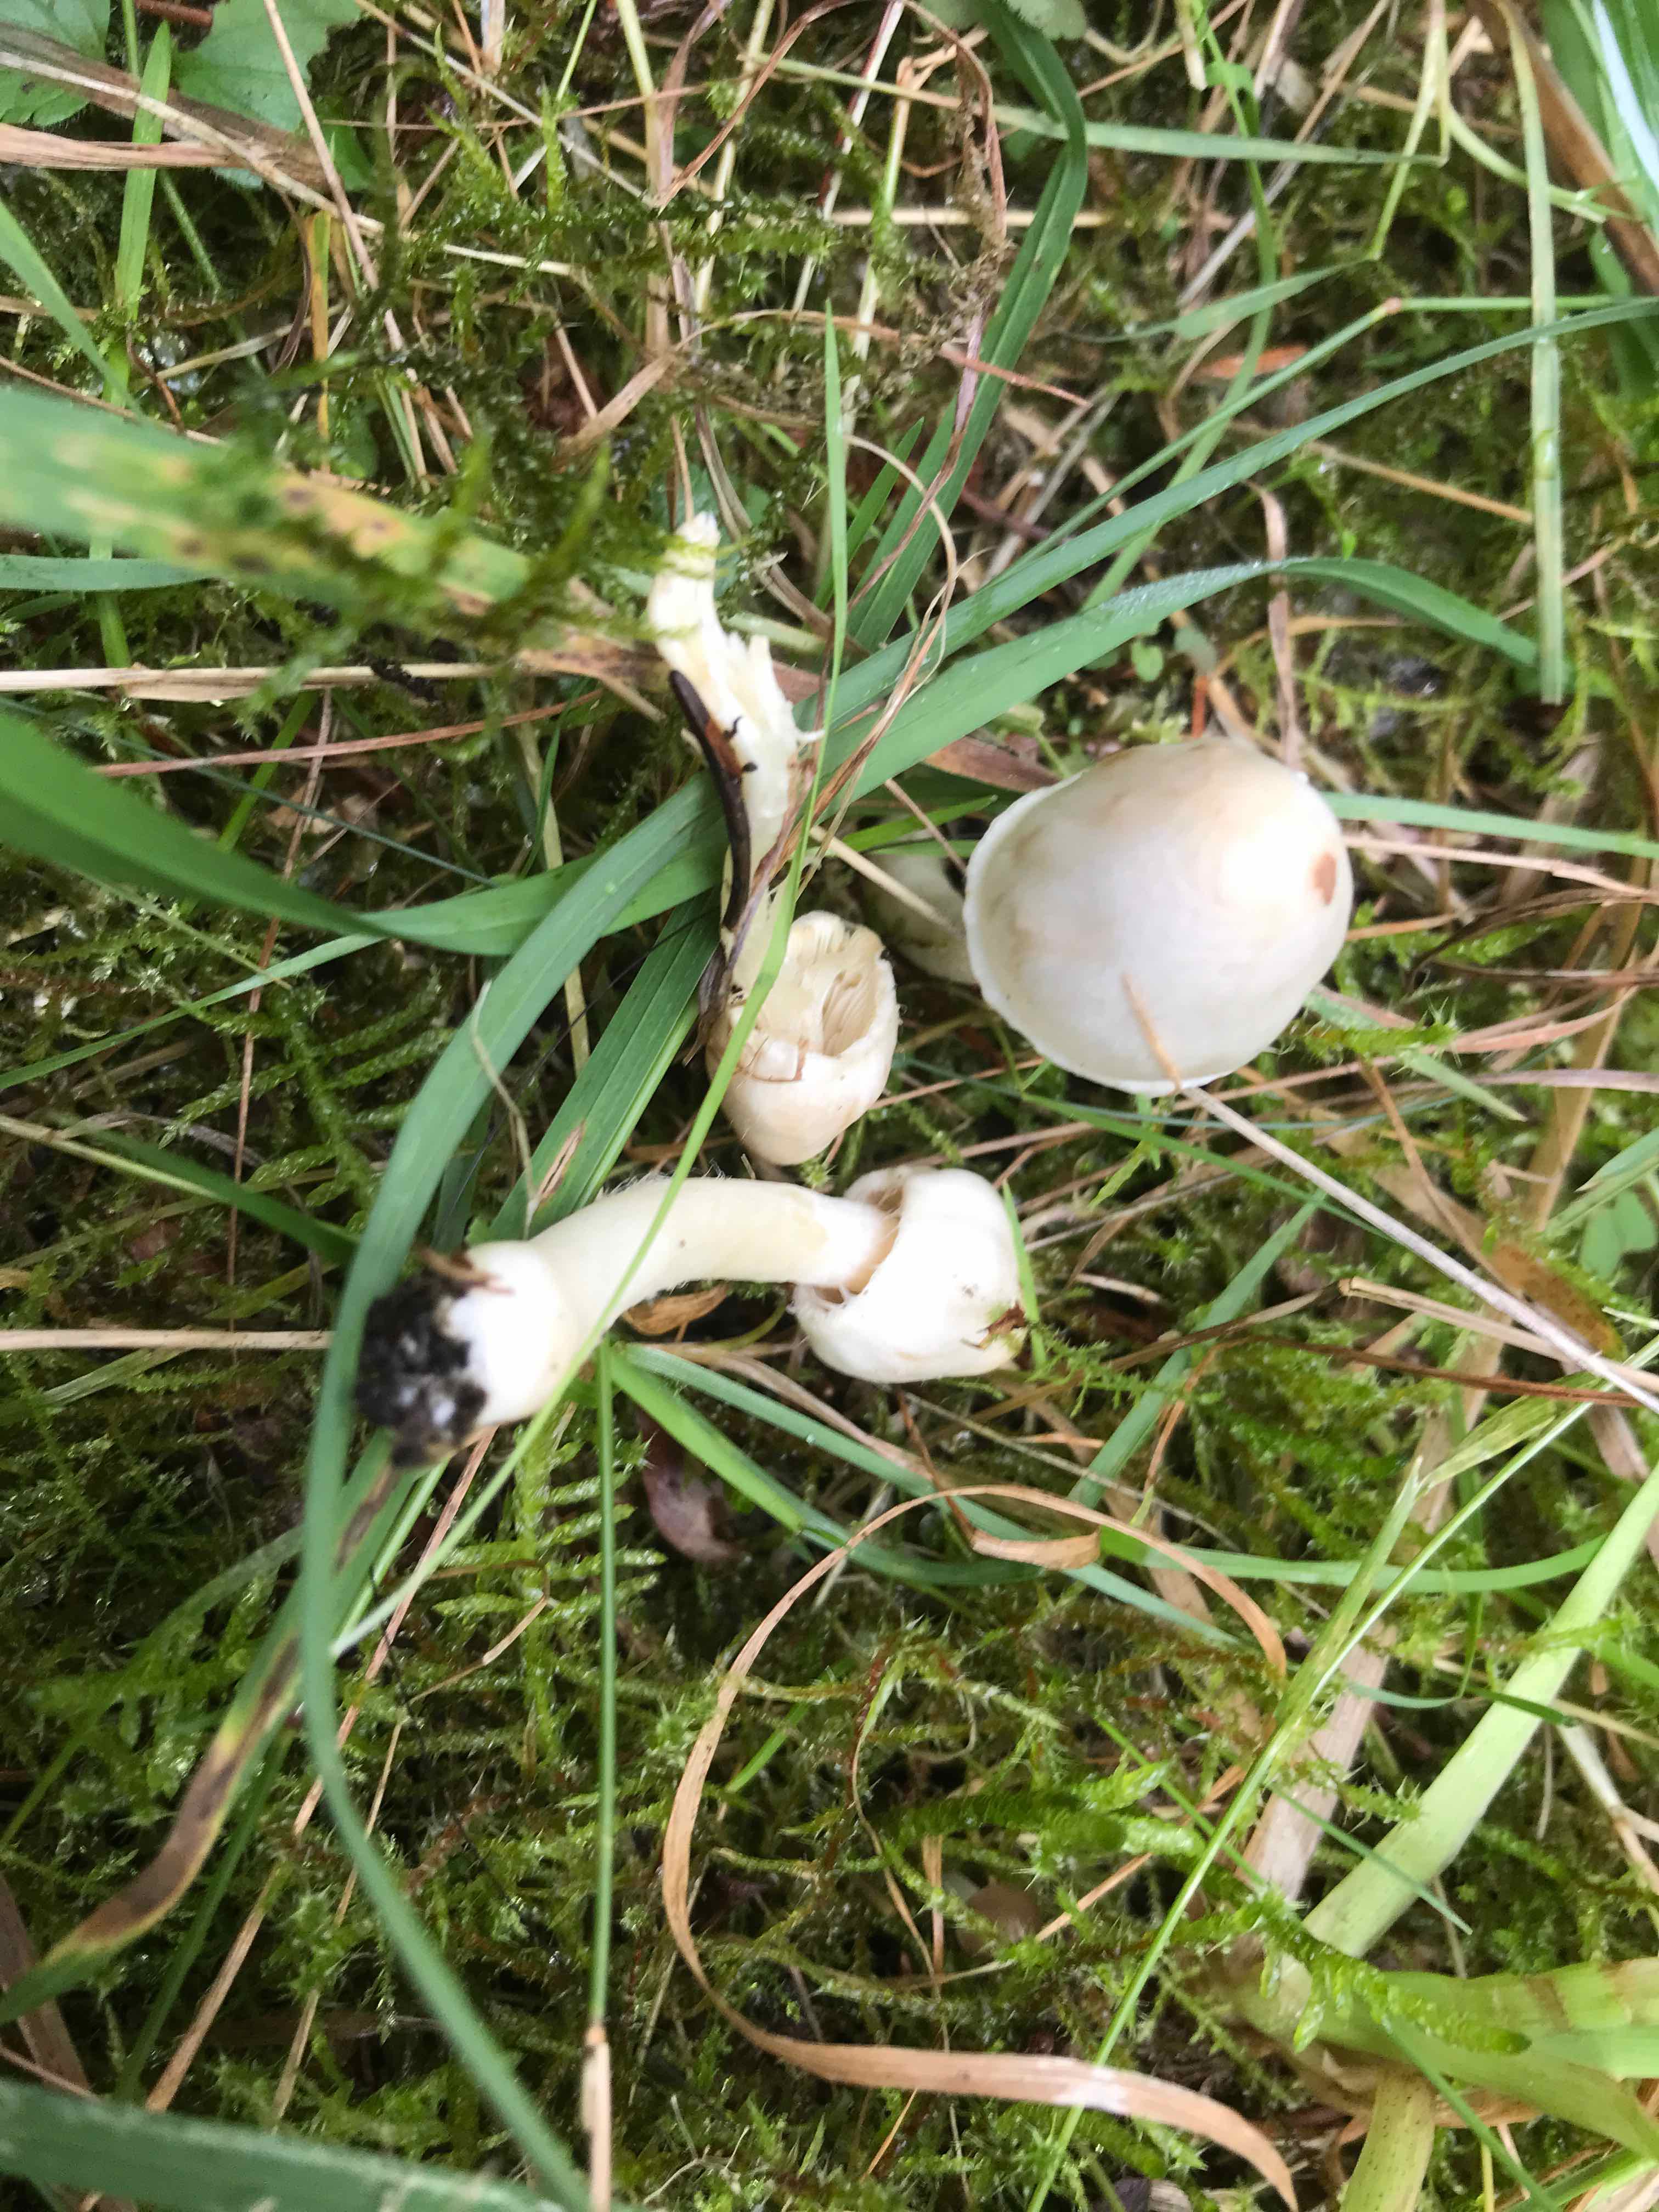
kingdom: Fungi
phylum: Basidiomycota
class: Agaricomycetes
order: Agaricales
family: Inocybaceae
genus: Inocybe
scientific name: Inocybe
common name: almindelig trævlhat
